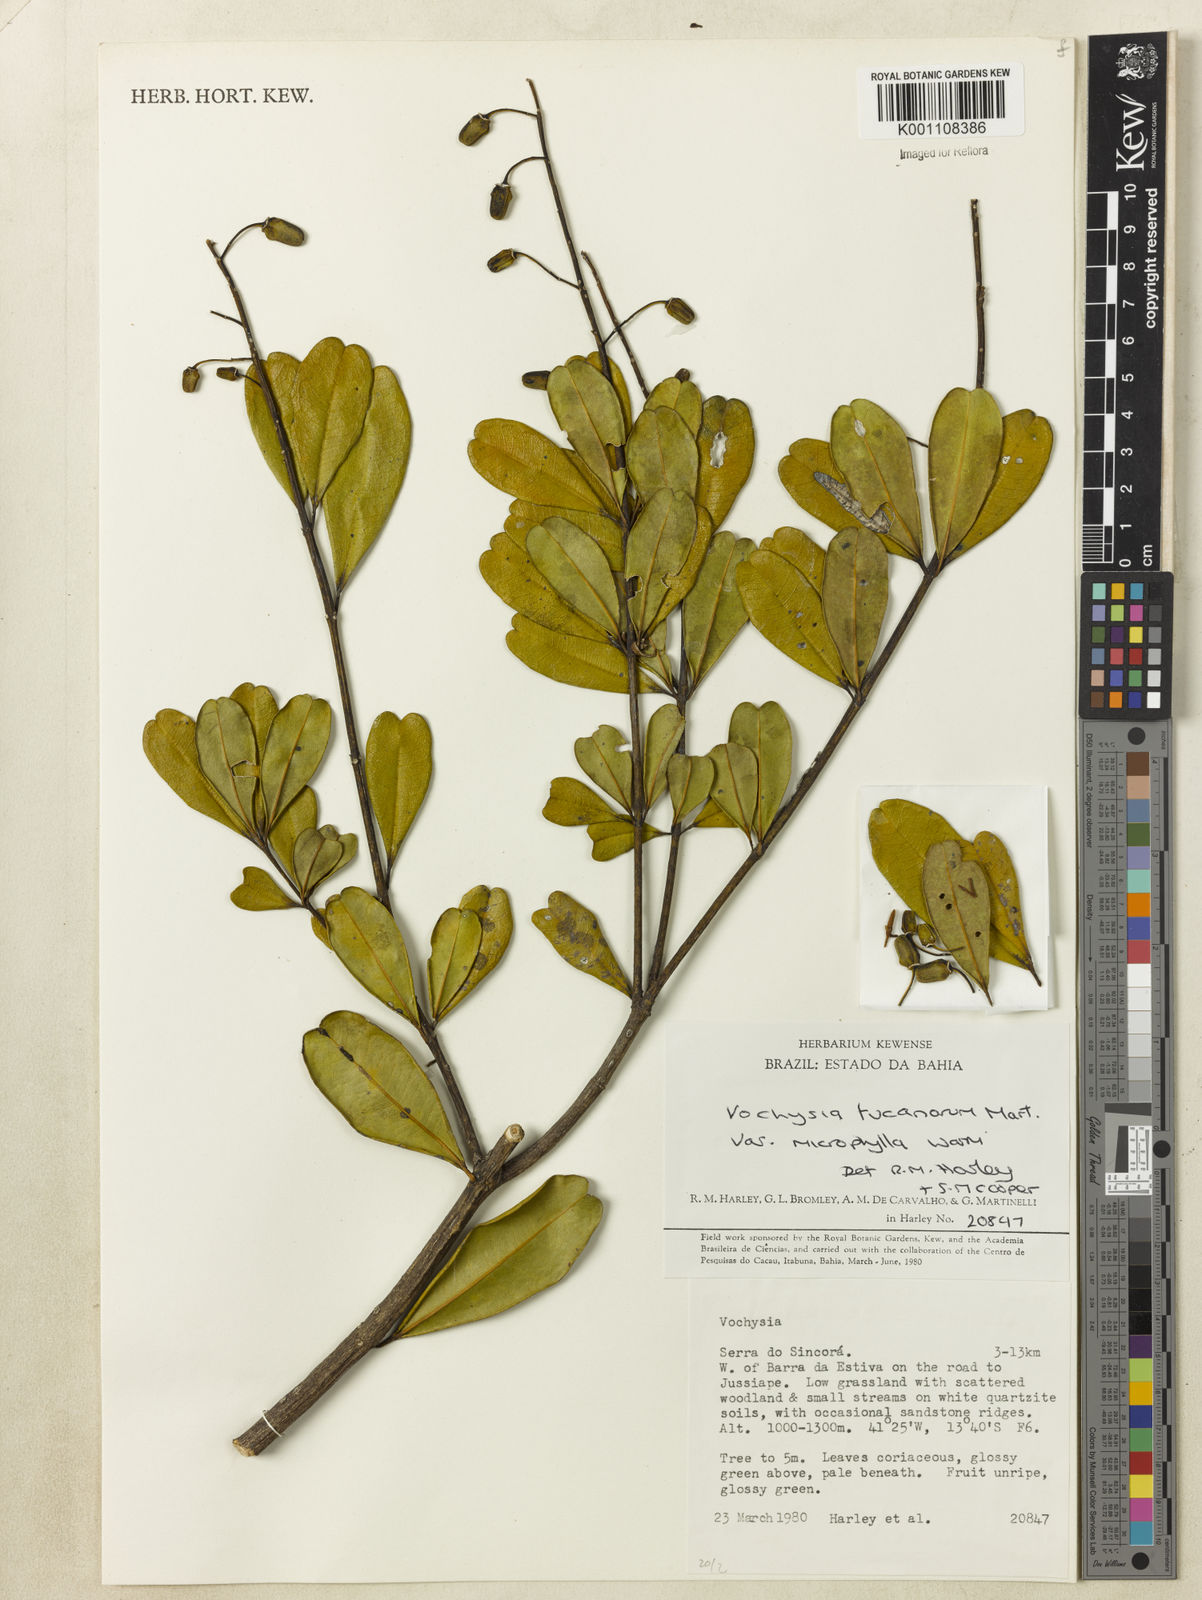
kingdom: Plantae
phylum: Tracheophyta
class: Magnoliopsida
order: Myrtales
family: Vochysiaceae
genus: Vochysia
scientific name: Vochysia tucanorum
